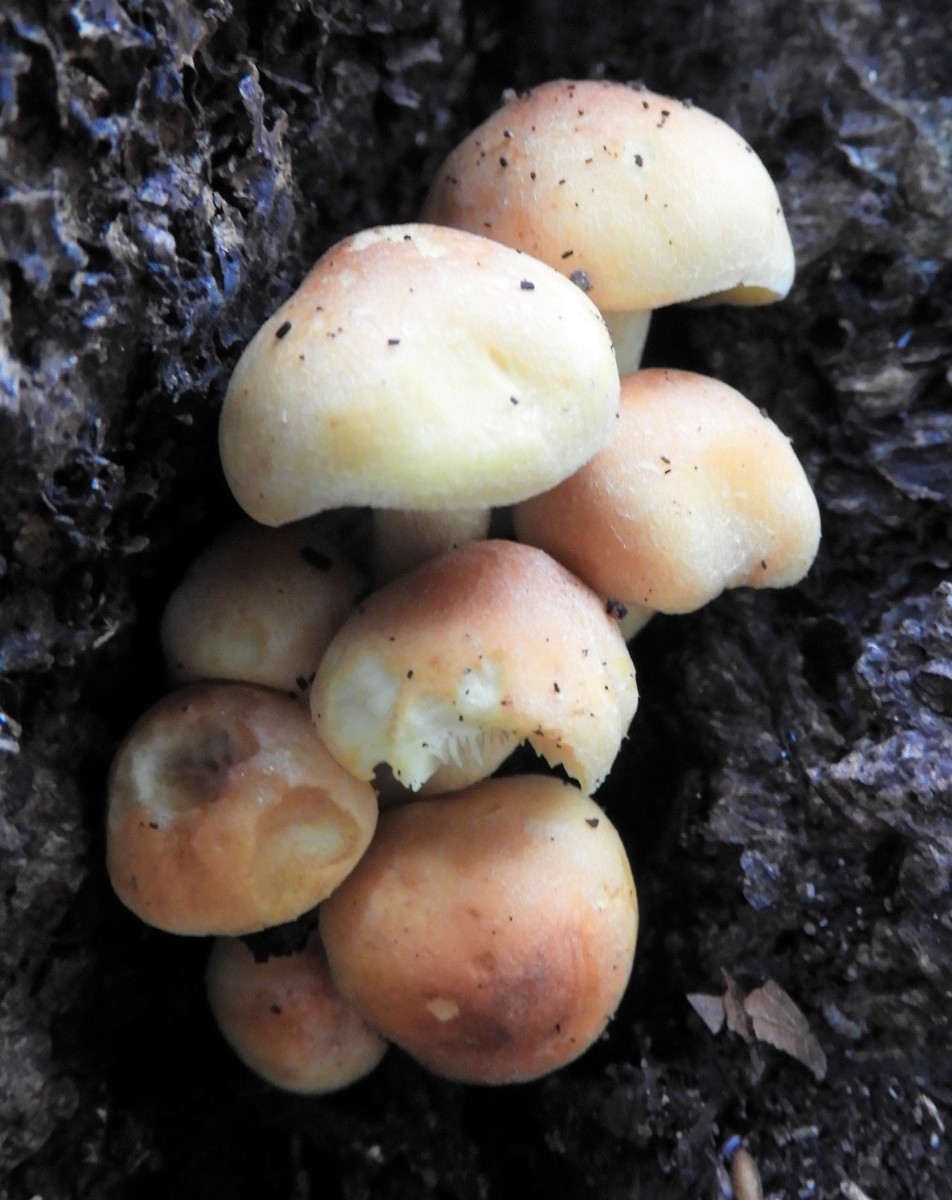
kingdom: Fungi
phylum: Basidiomycota
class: Agaricomycetes
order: Agaricales
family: Strophariaceae
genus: Hypholoma
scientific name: Hypholoma
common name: svovlhat
